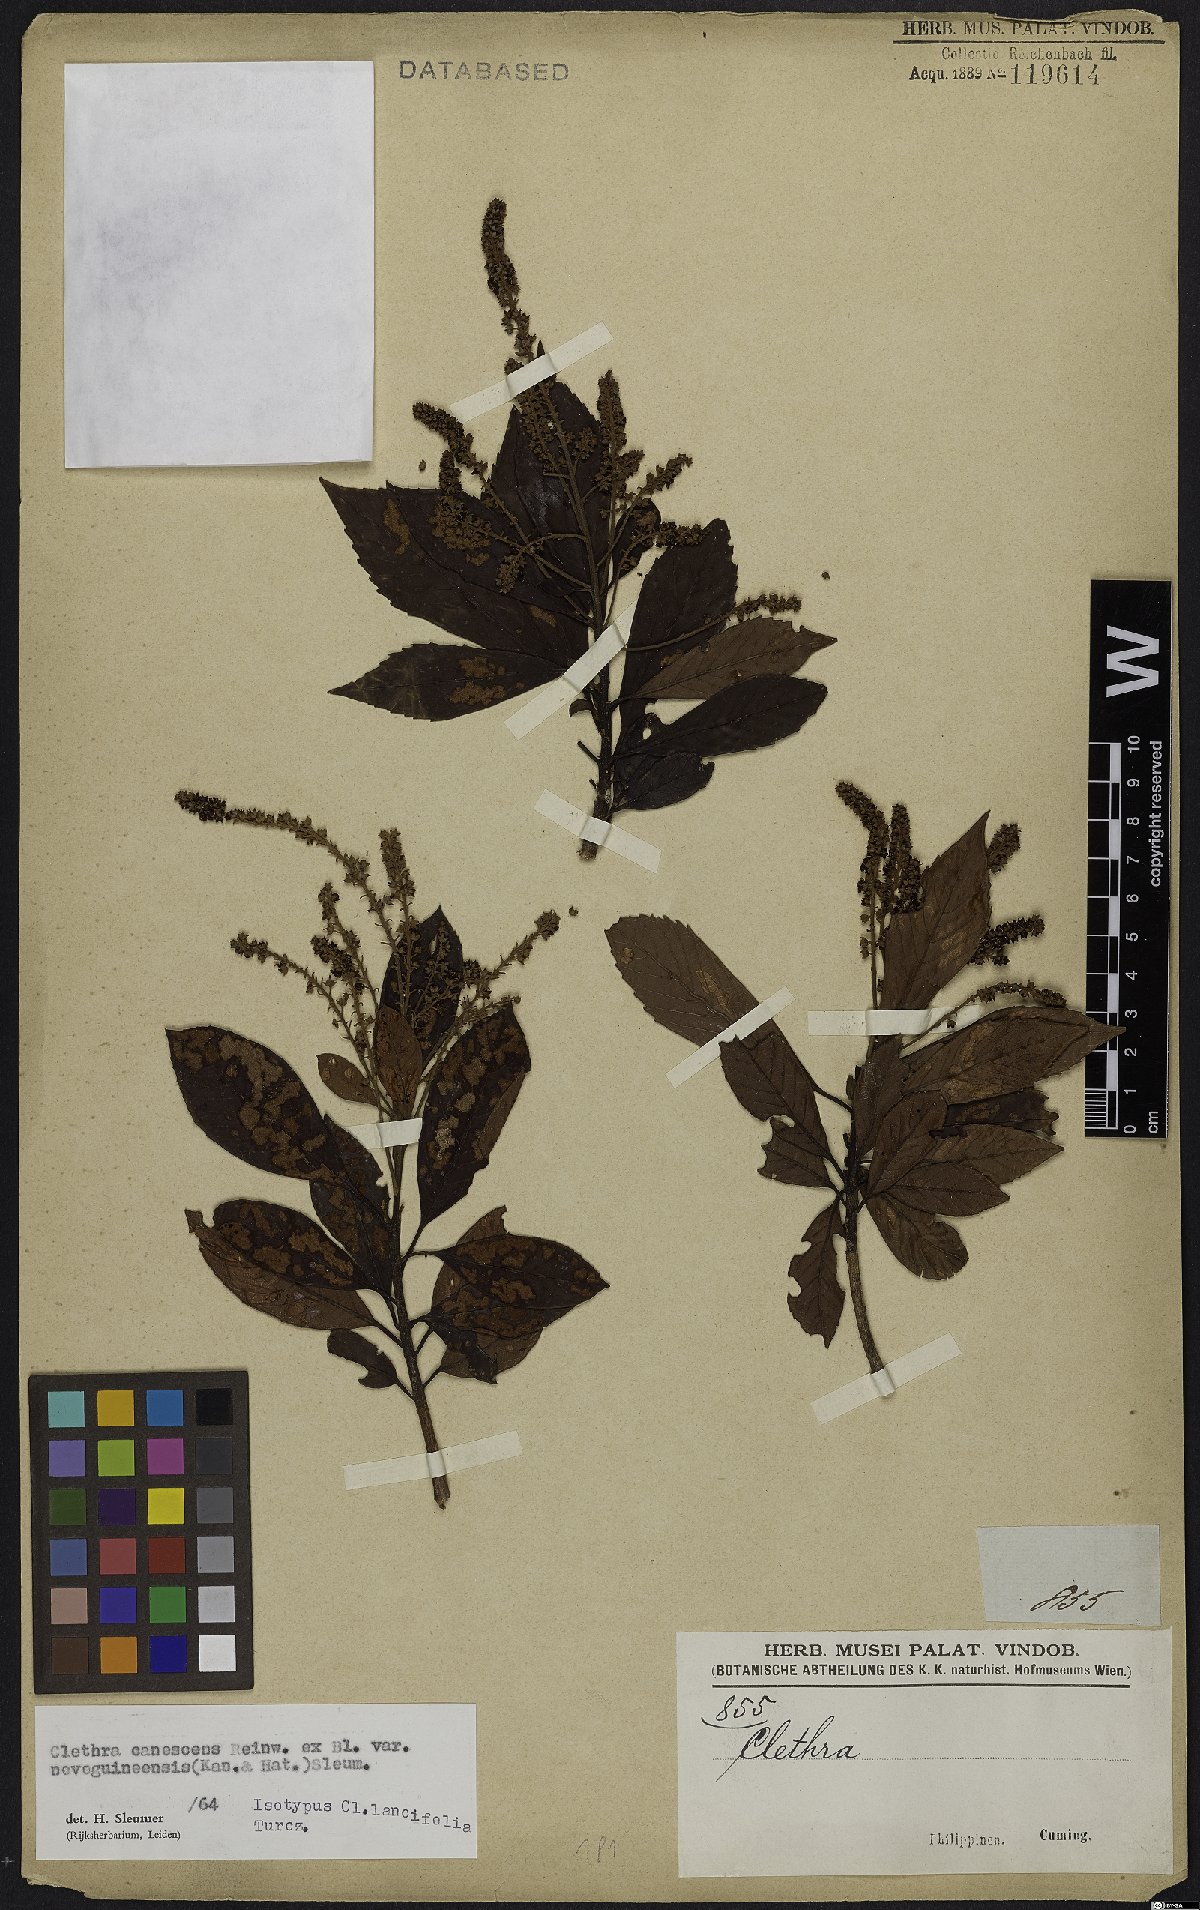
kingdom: Plantae
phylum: Tracheophyta
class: Magnoliopsida
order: Ericales
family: Clethraceae
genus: Clethra
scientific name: Clethra canescens
